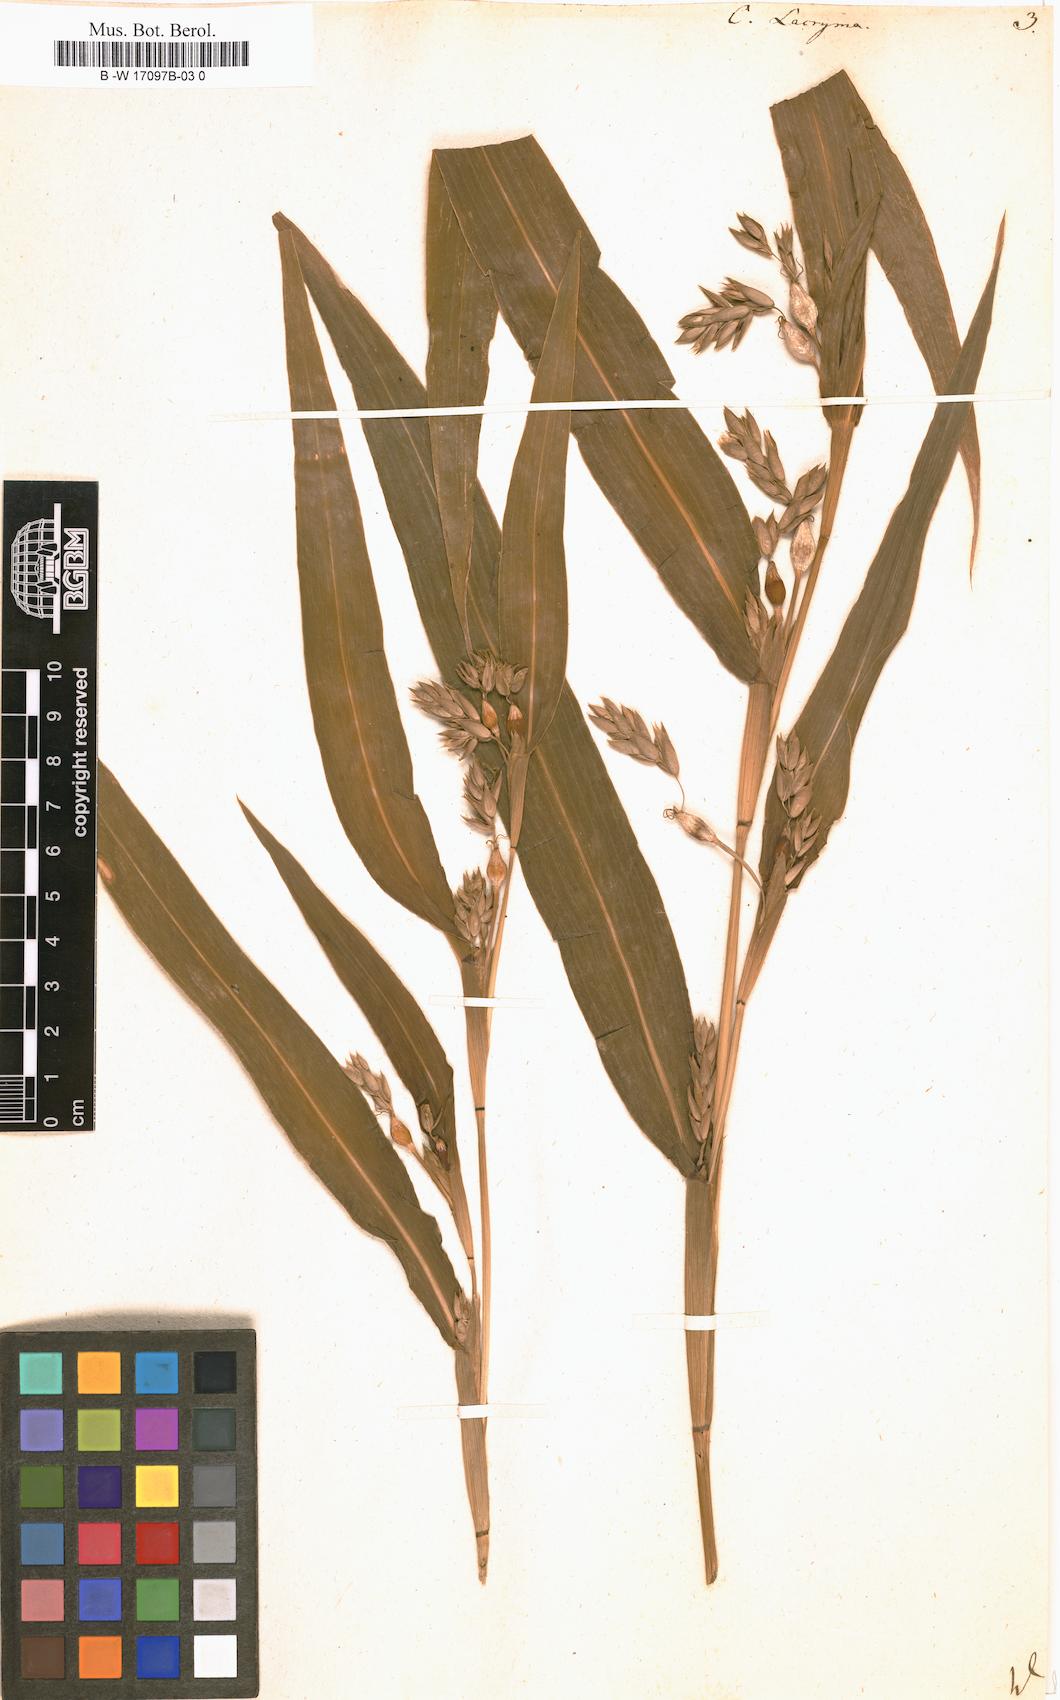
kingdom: Plantae
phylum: Tracheophyta
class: Liliopsida
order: Poales
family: Poaceae
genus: Coix
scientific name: Coix lacryma-jobi
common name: Job's tears
